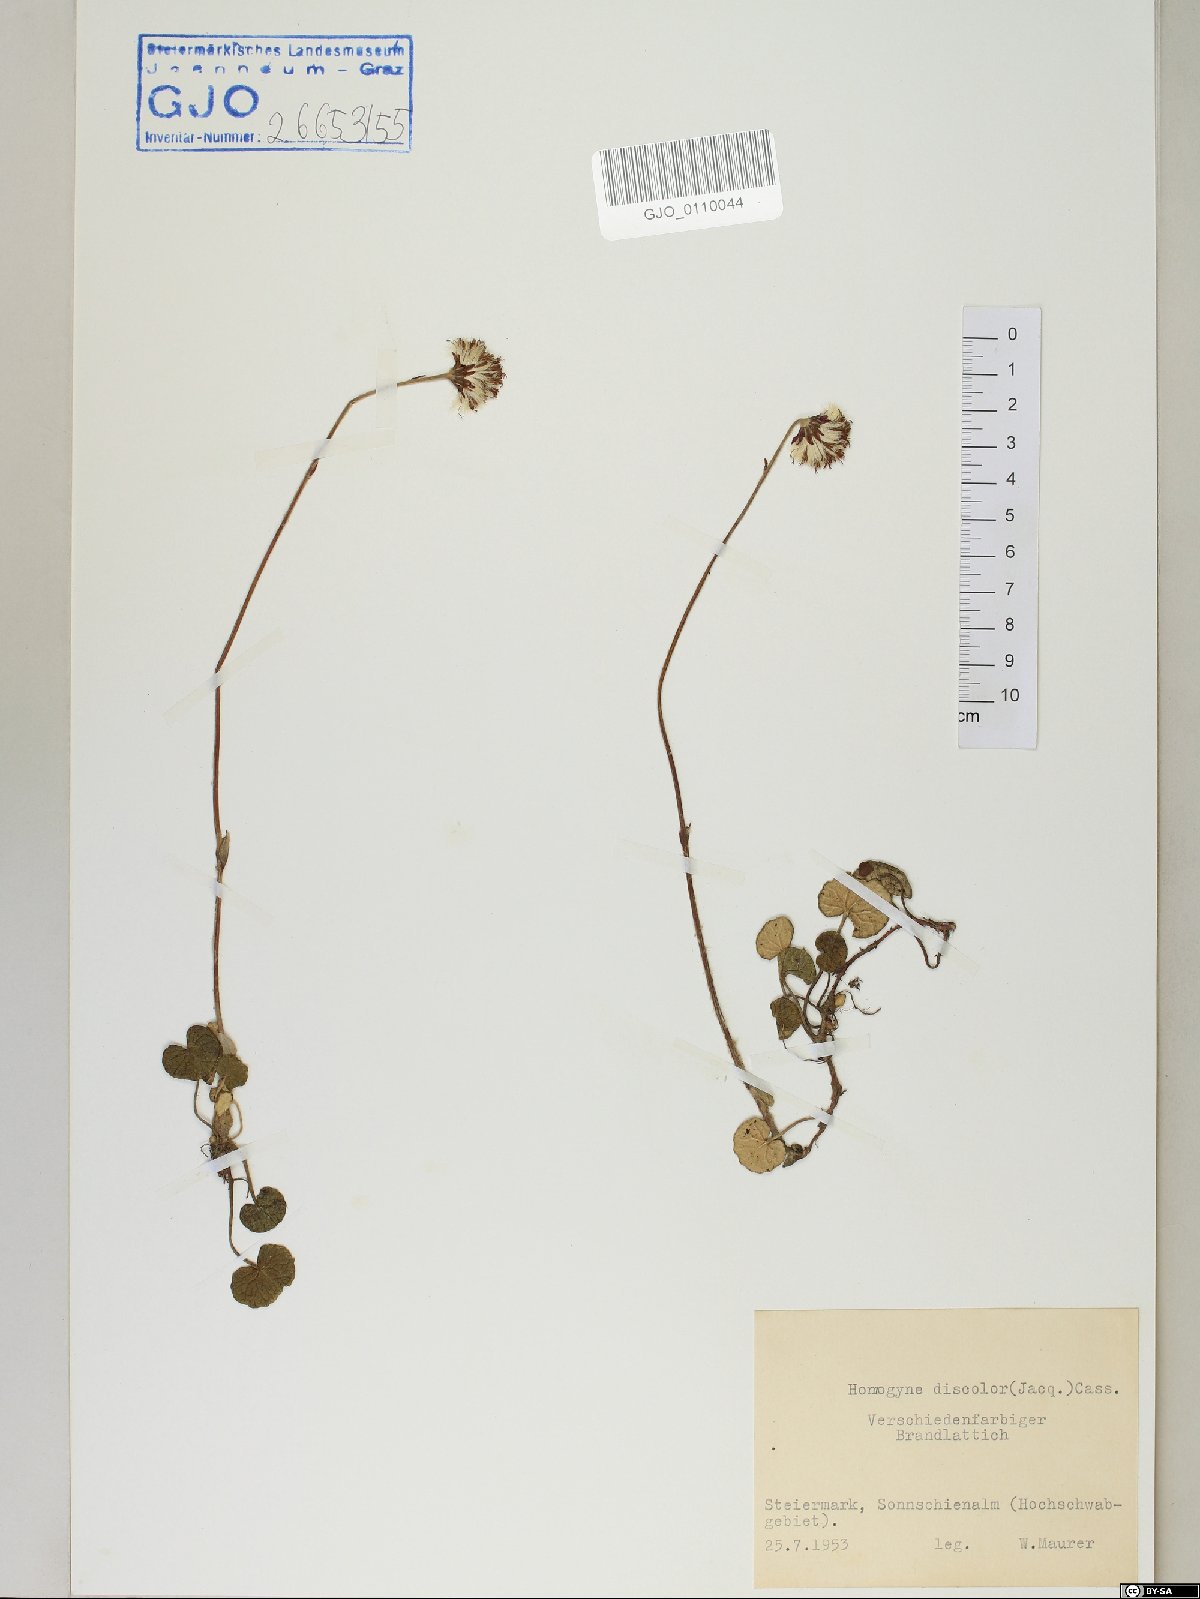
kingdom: Plantae
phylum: Tracheophyta
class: Magnoliopsida
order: Asterales
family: Asteraceae
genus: Homogyne
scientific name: Homogyne discolor
